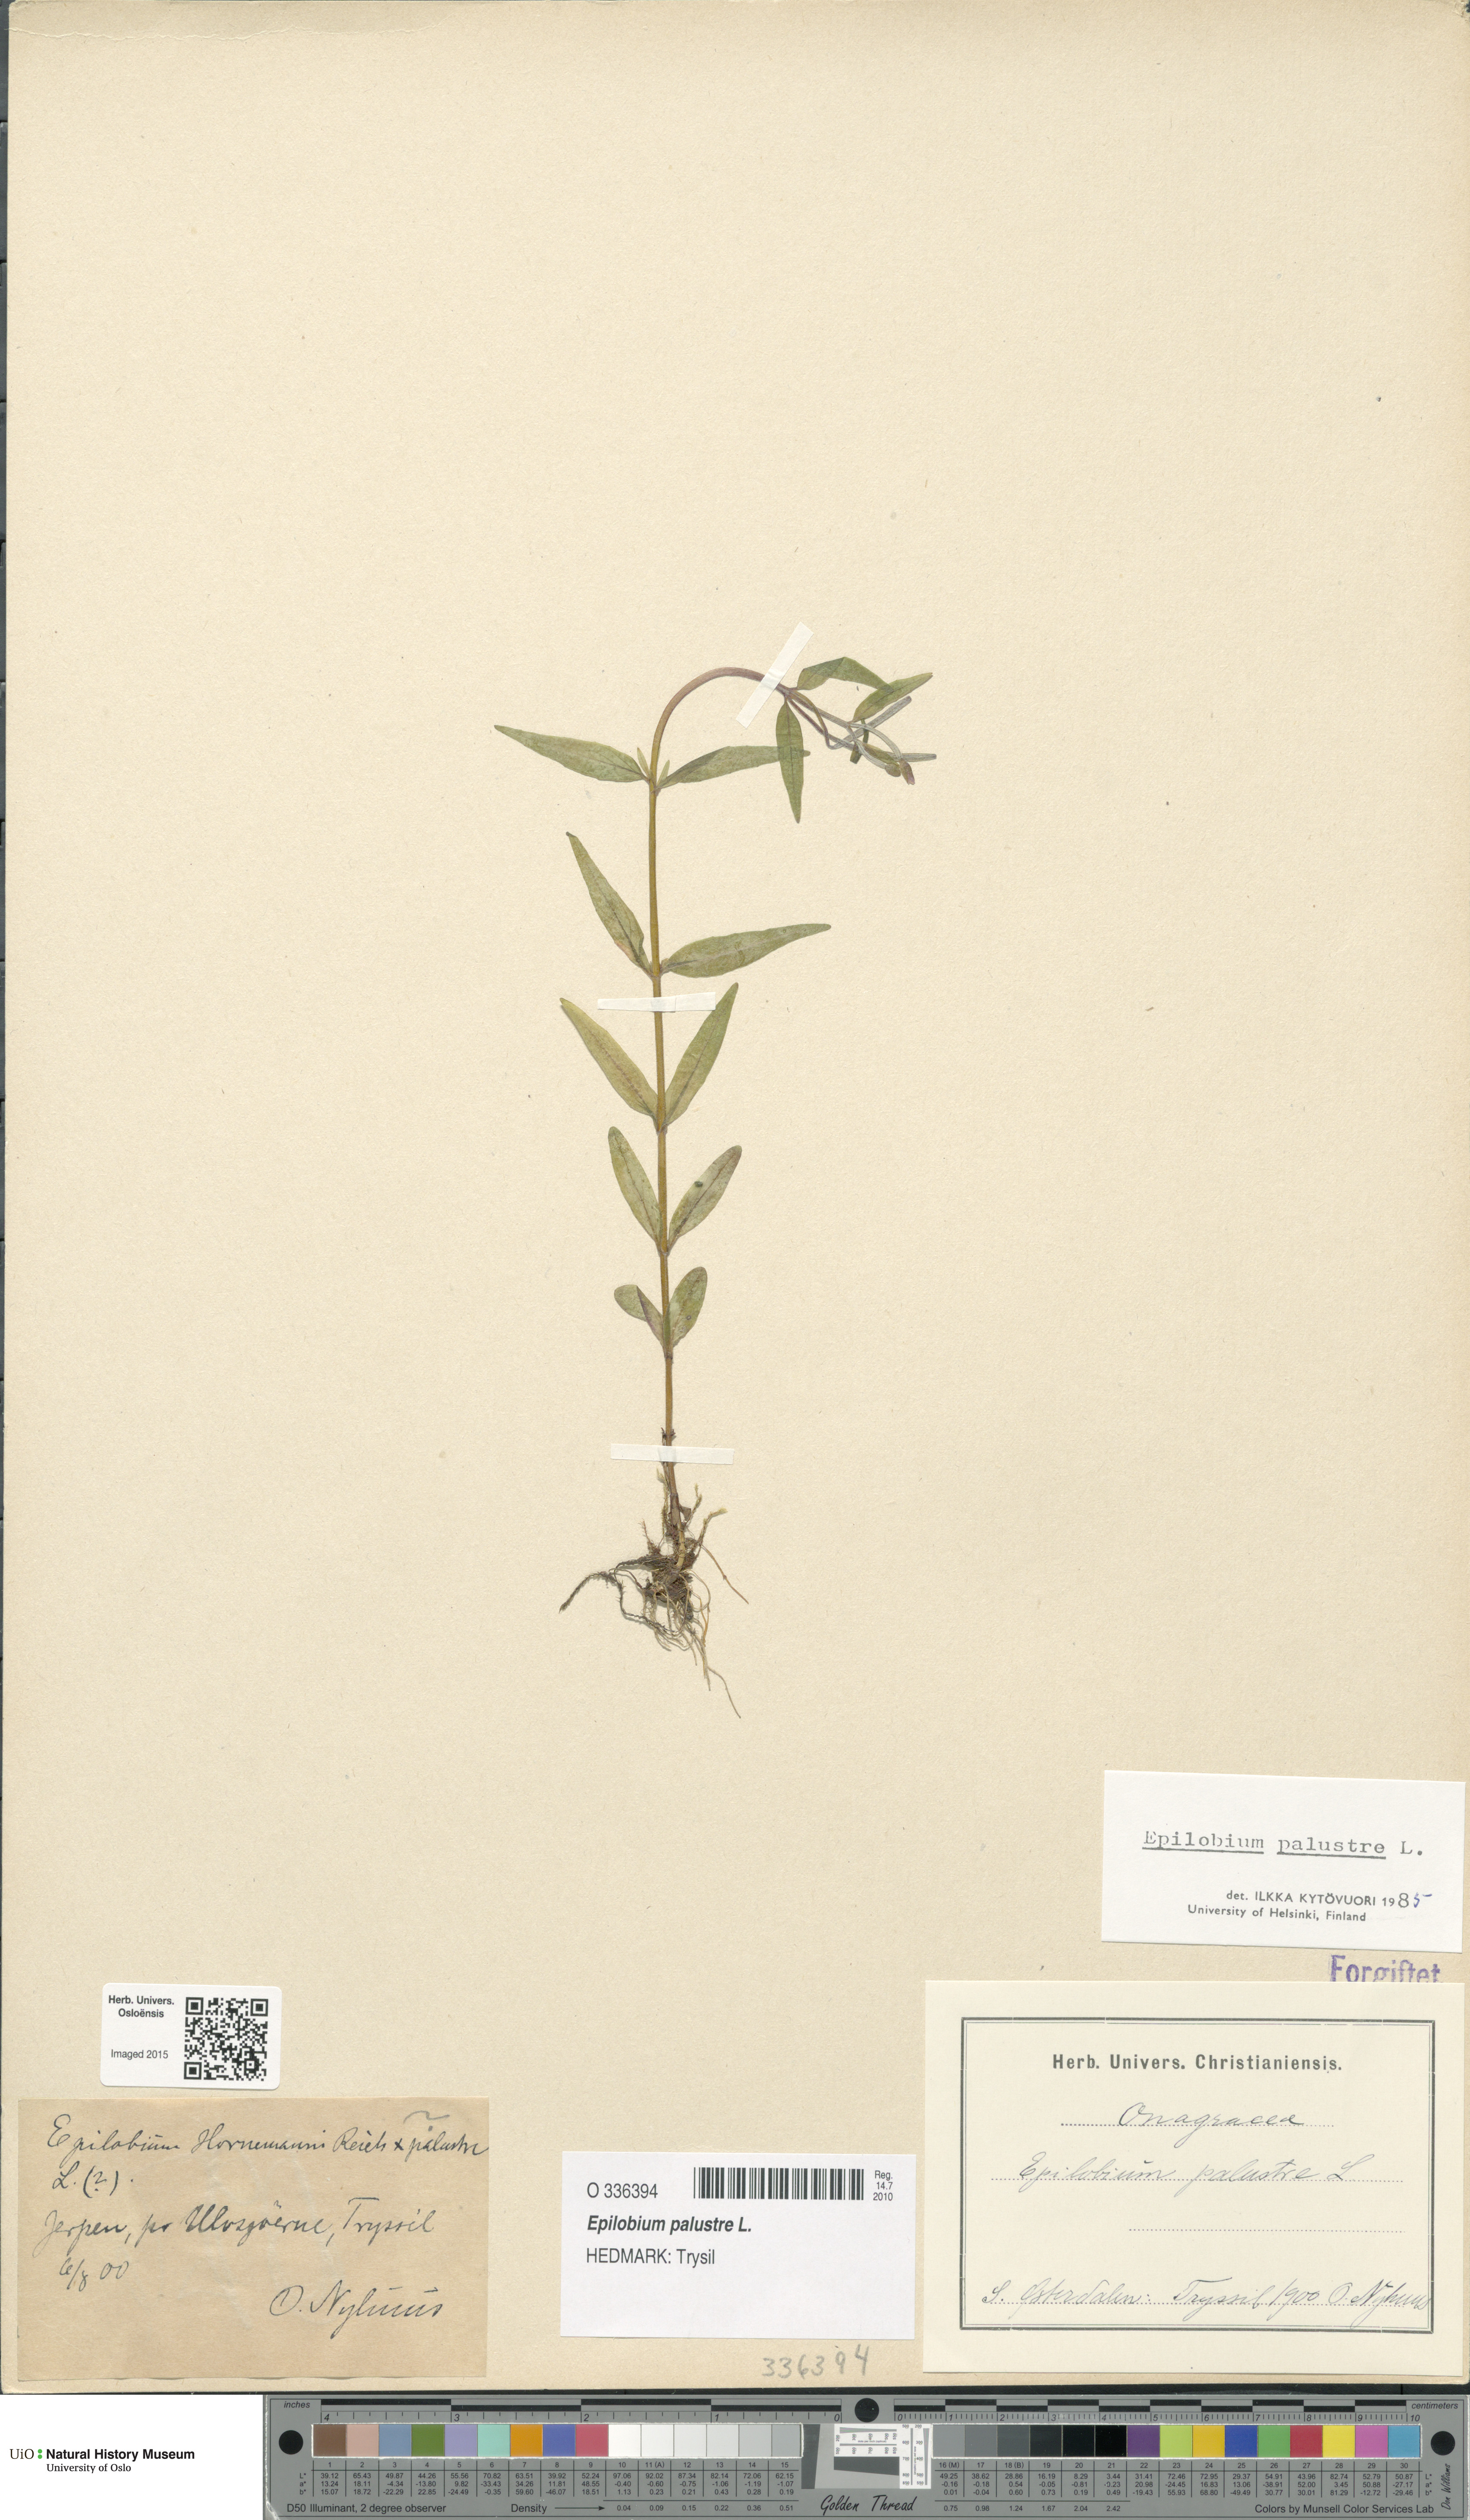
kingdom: Plantae
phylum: Tracheophyta
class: Magnoliopsida
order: Myrtales
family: Onagraceae
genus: Epilobium
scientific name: Epilobium palustre
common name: Marsh willowherb
